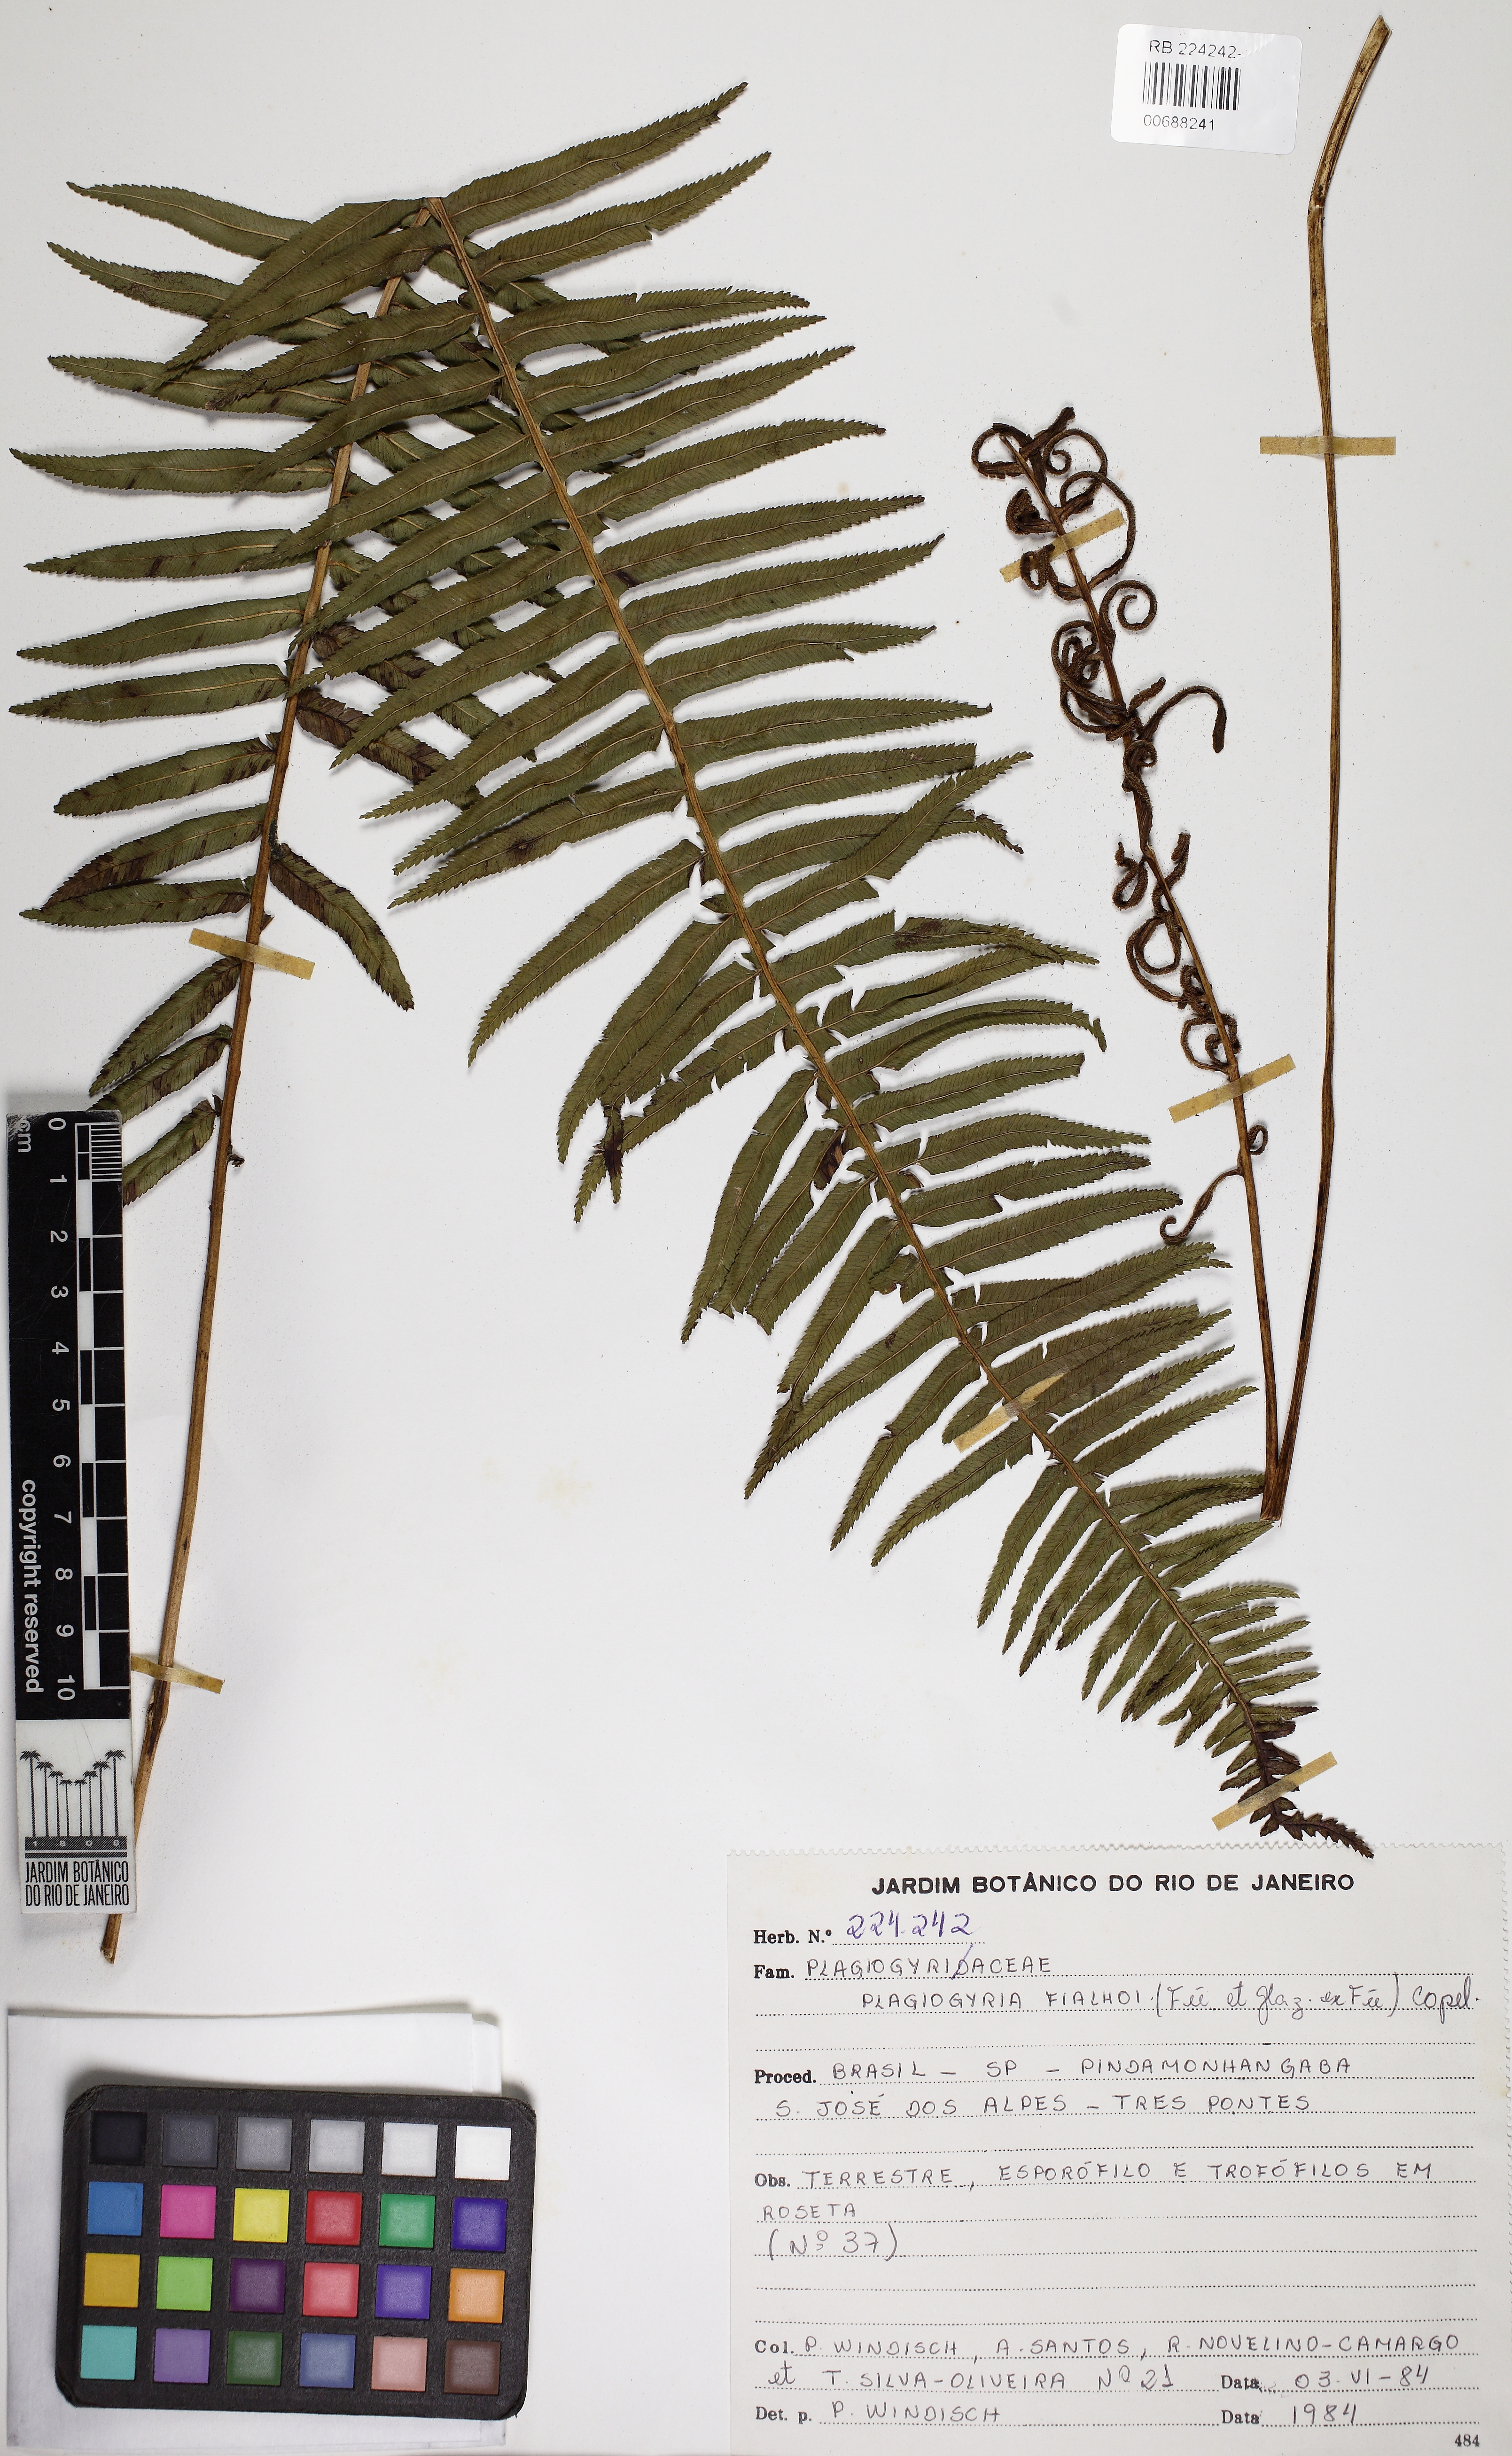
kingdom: Plantae
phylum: Tracheophyta
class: Polypodiopsida
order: Cyatheales
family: Plagiogyriaceae
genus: Plagiogyria
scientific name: Plagiogyria pectinata
